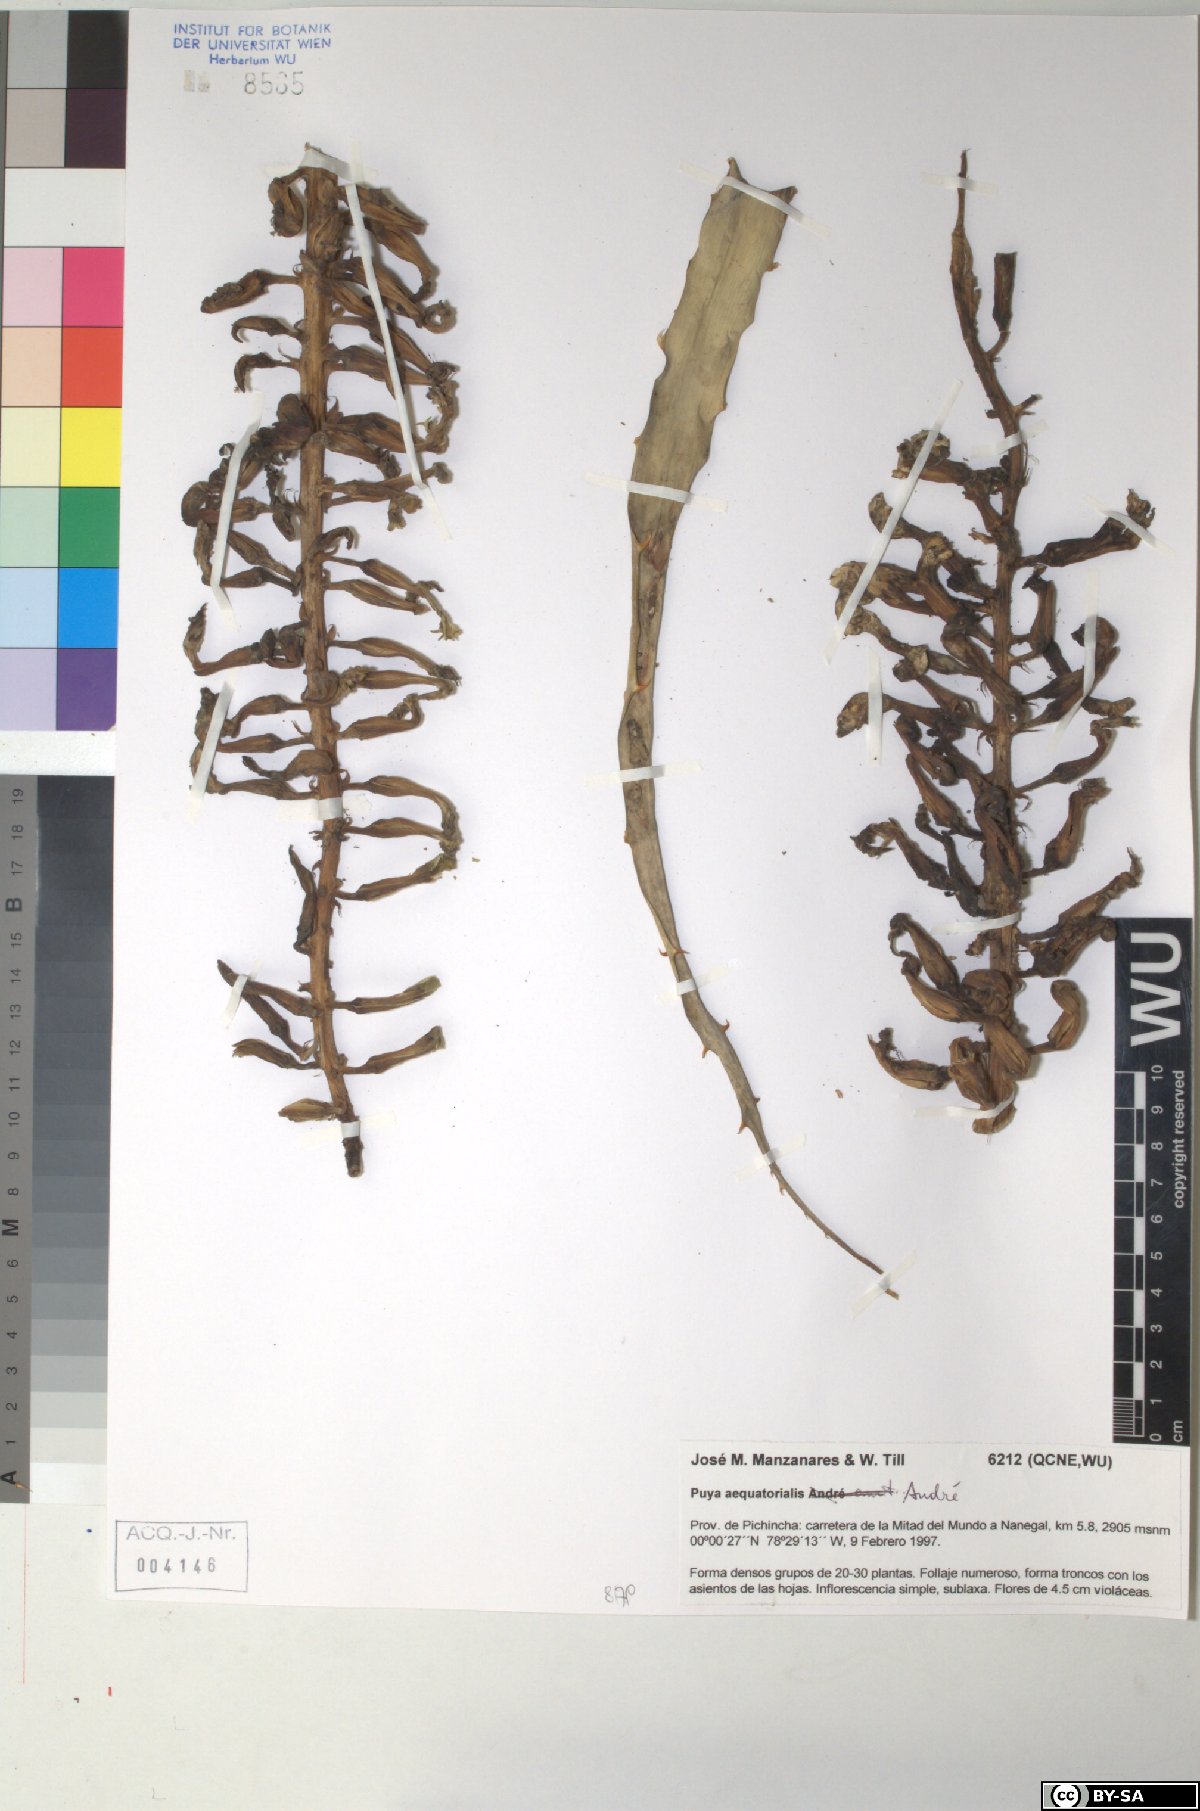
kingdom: Plantae
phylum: Tracheophyta
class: Liliopsida
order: Poales
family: Bromeliaceae
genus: Puya
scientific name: Puya aequatorialis
